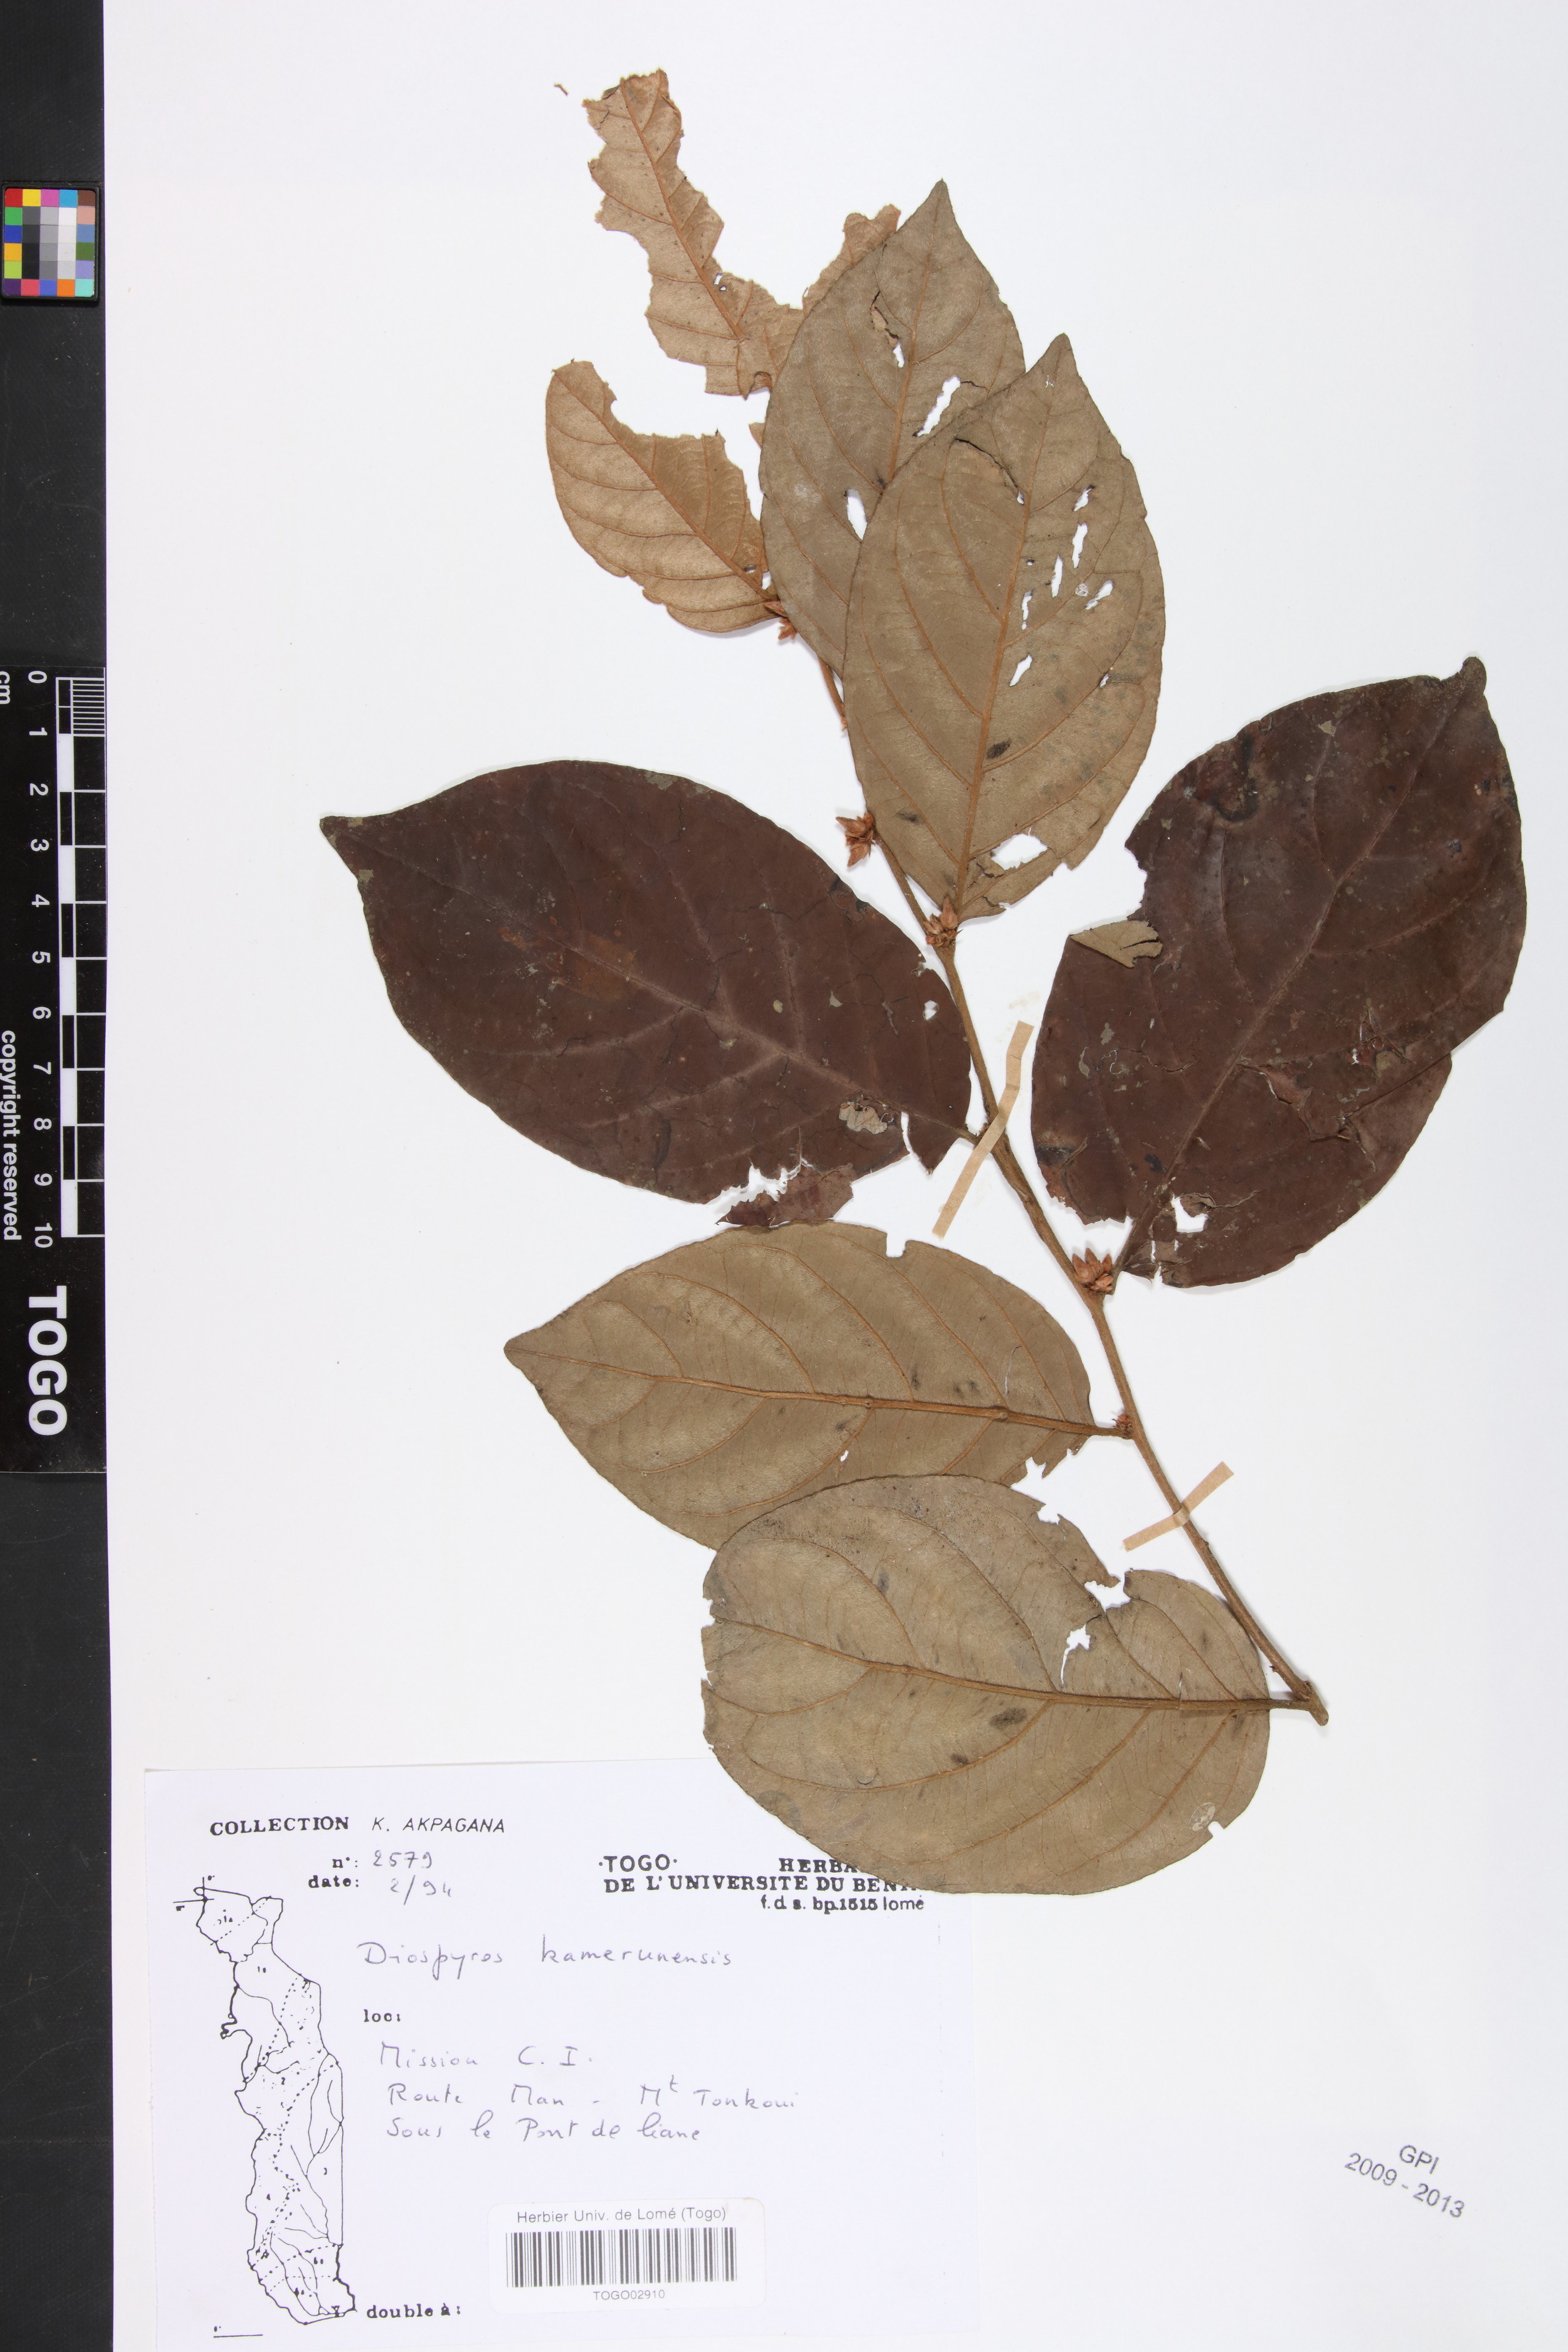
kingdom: Plantae
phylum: Tracheophyta
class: Magnoliopsida
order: Ericales
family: Ebenaceae
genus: Diospyros
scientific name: Diospyros kamerunensis
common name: African ebony
